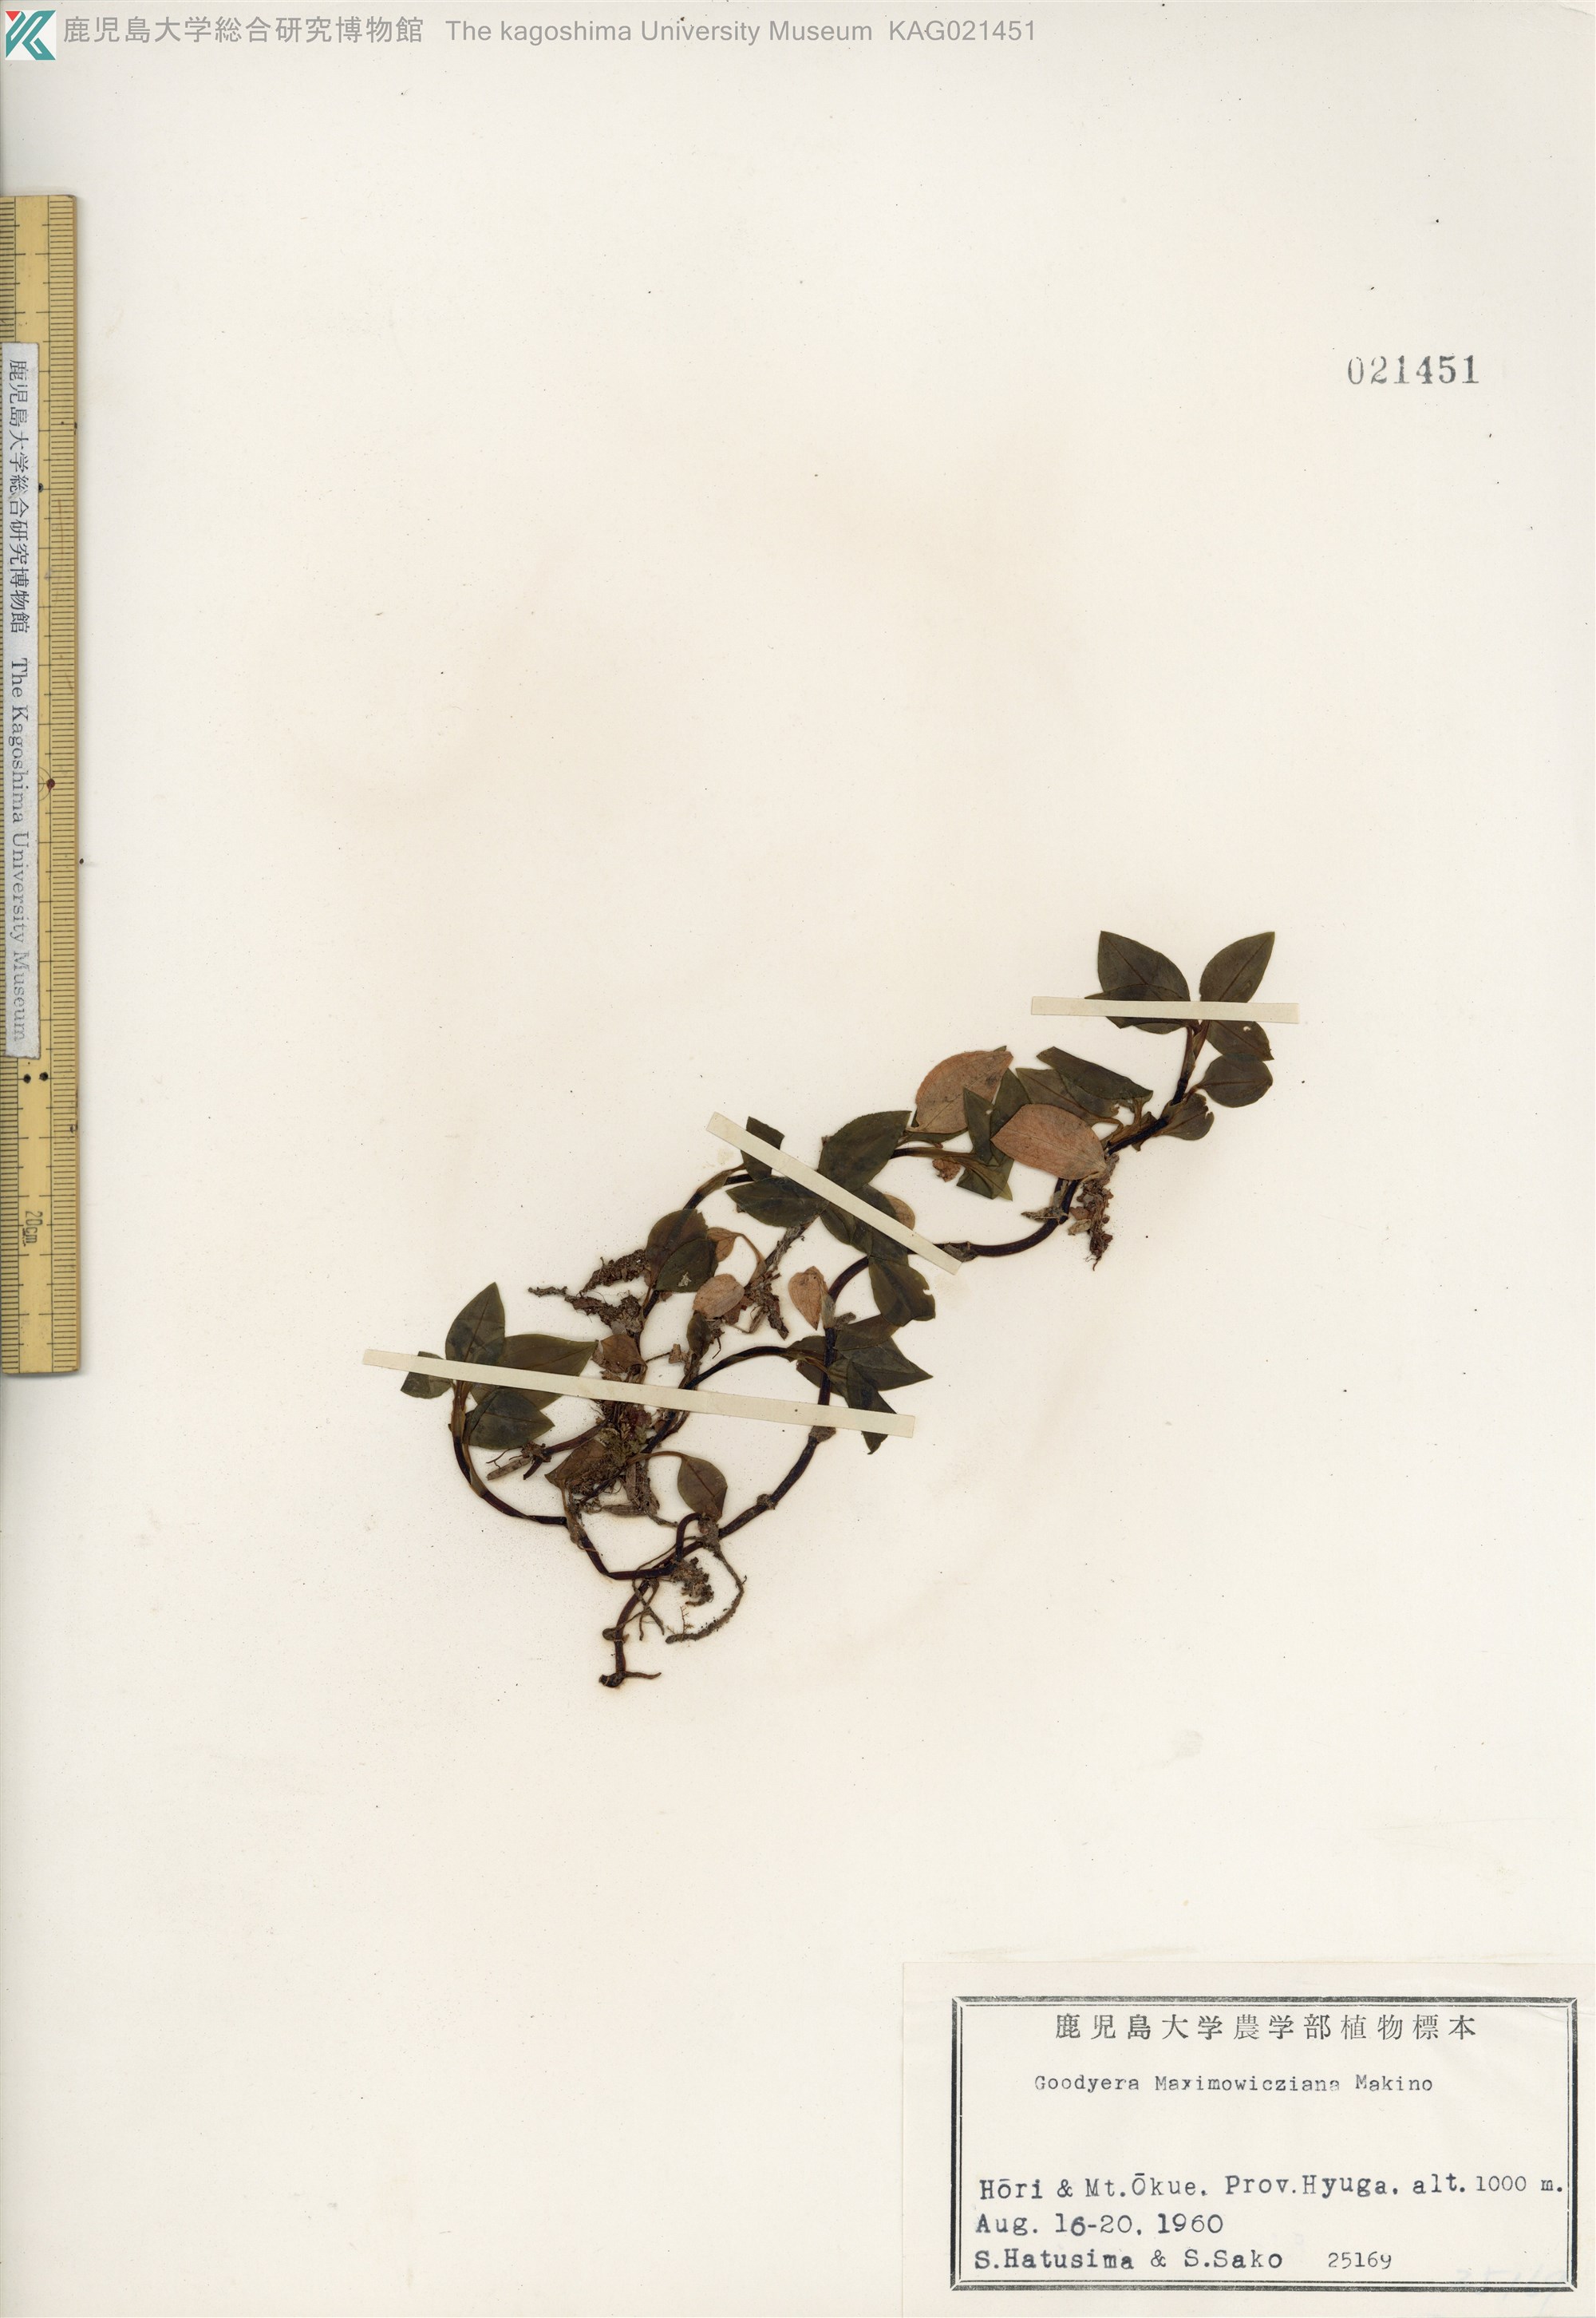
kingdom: Plantae
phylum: Tracheophyta
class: Liliopsida
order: Asparagales
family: Orchidaceae
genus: Goodyera
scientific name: Goodyera henryi
